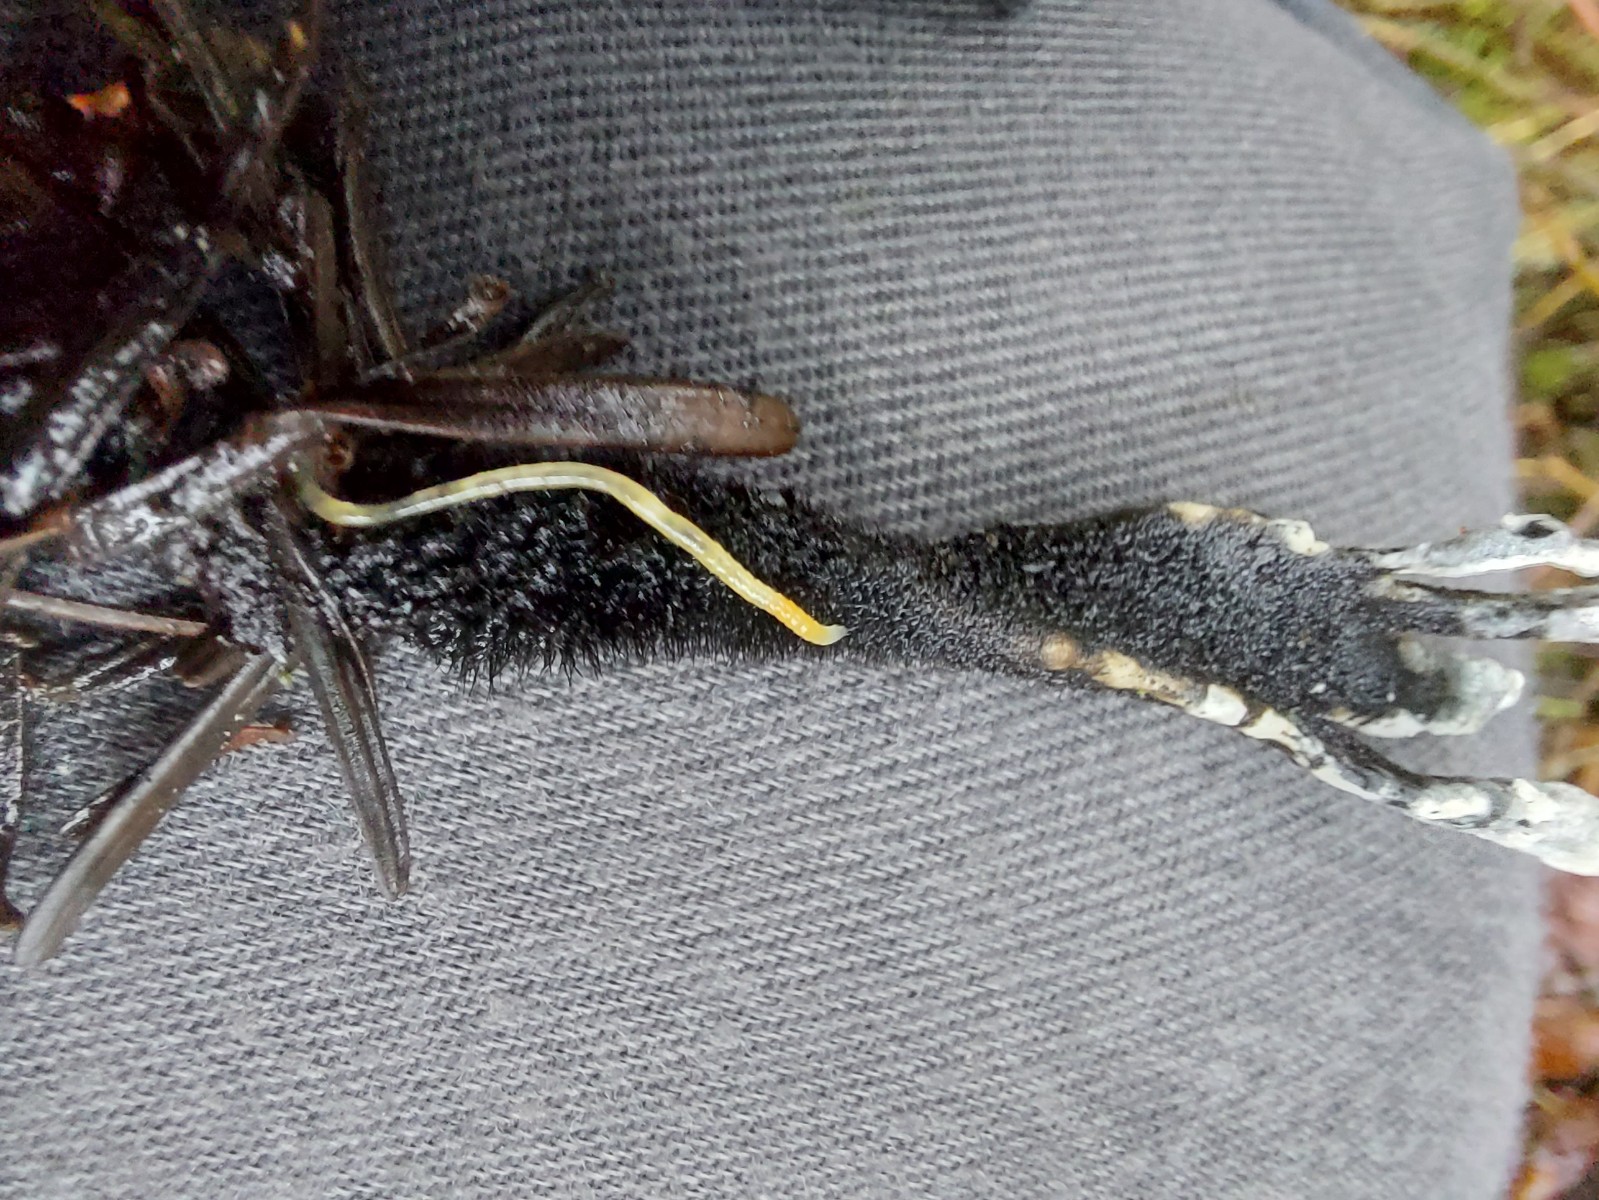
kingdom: Fungi
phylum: Ascomycota
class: Sordariomycetes
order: Xylariales
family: Xylariaceae
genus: Xylaria
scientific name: Xylaria hypoxylon
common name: grenet stødsvamp
